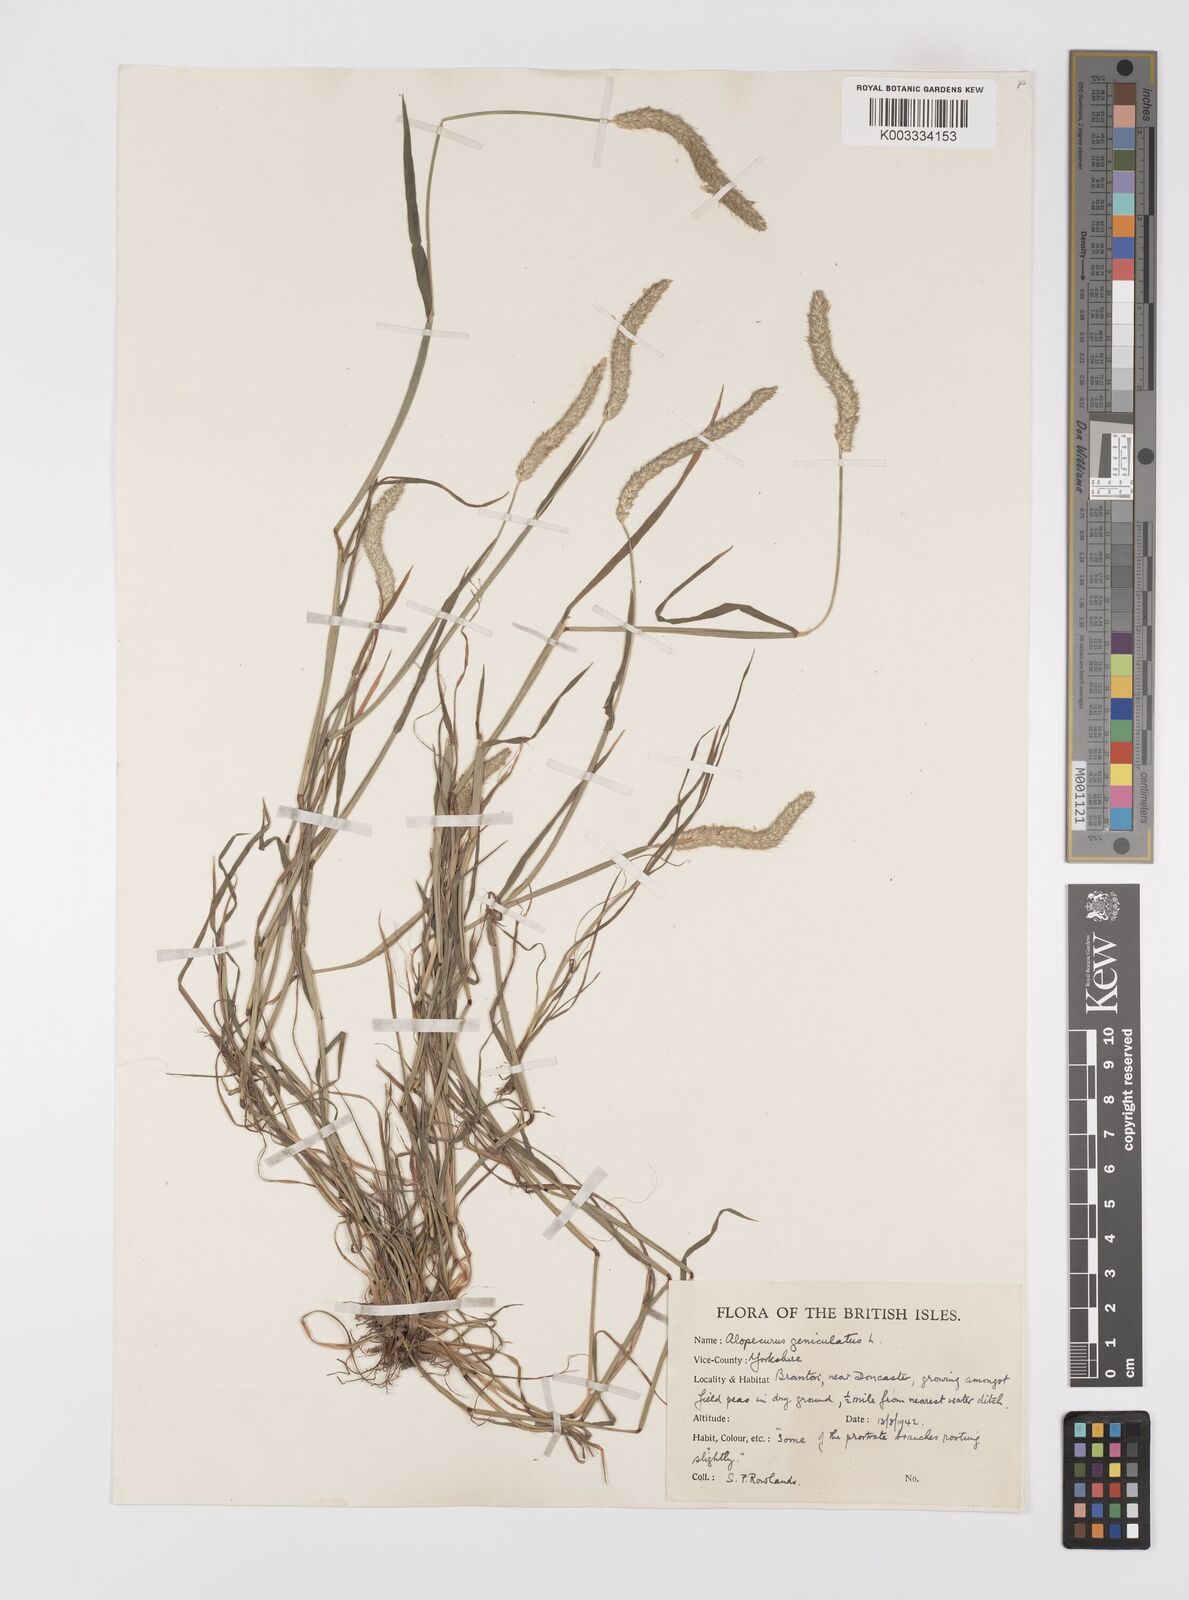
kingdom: Plantae
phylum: Tracheophyta
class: Liliopsida
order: Poales
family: Poaceae
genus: Alopecurus
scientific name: Alopecurus geniculatus
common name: Water foxtail
